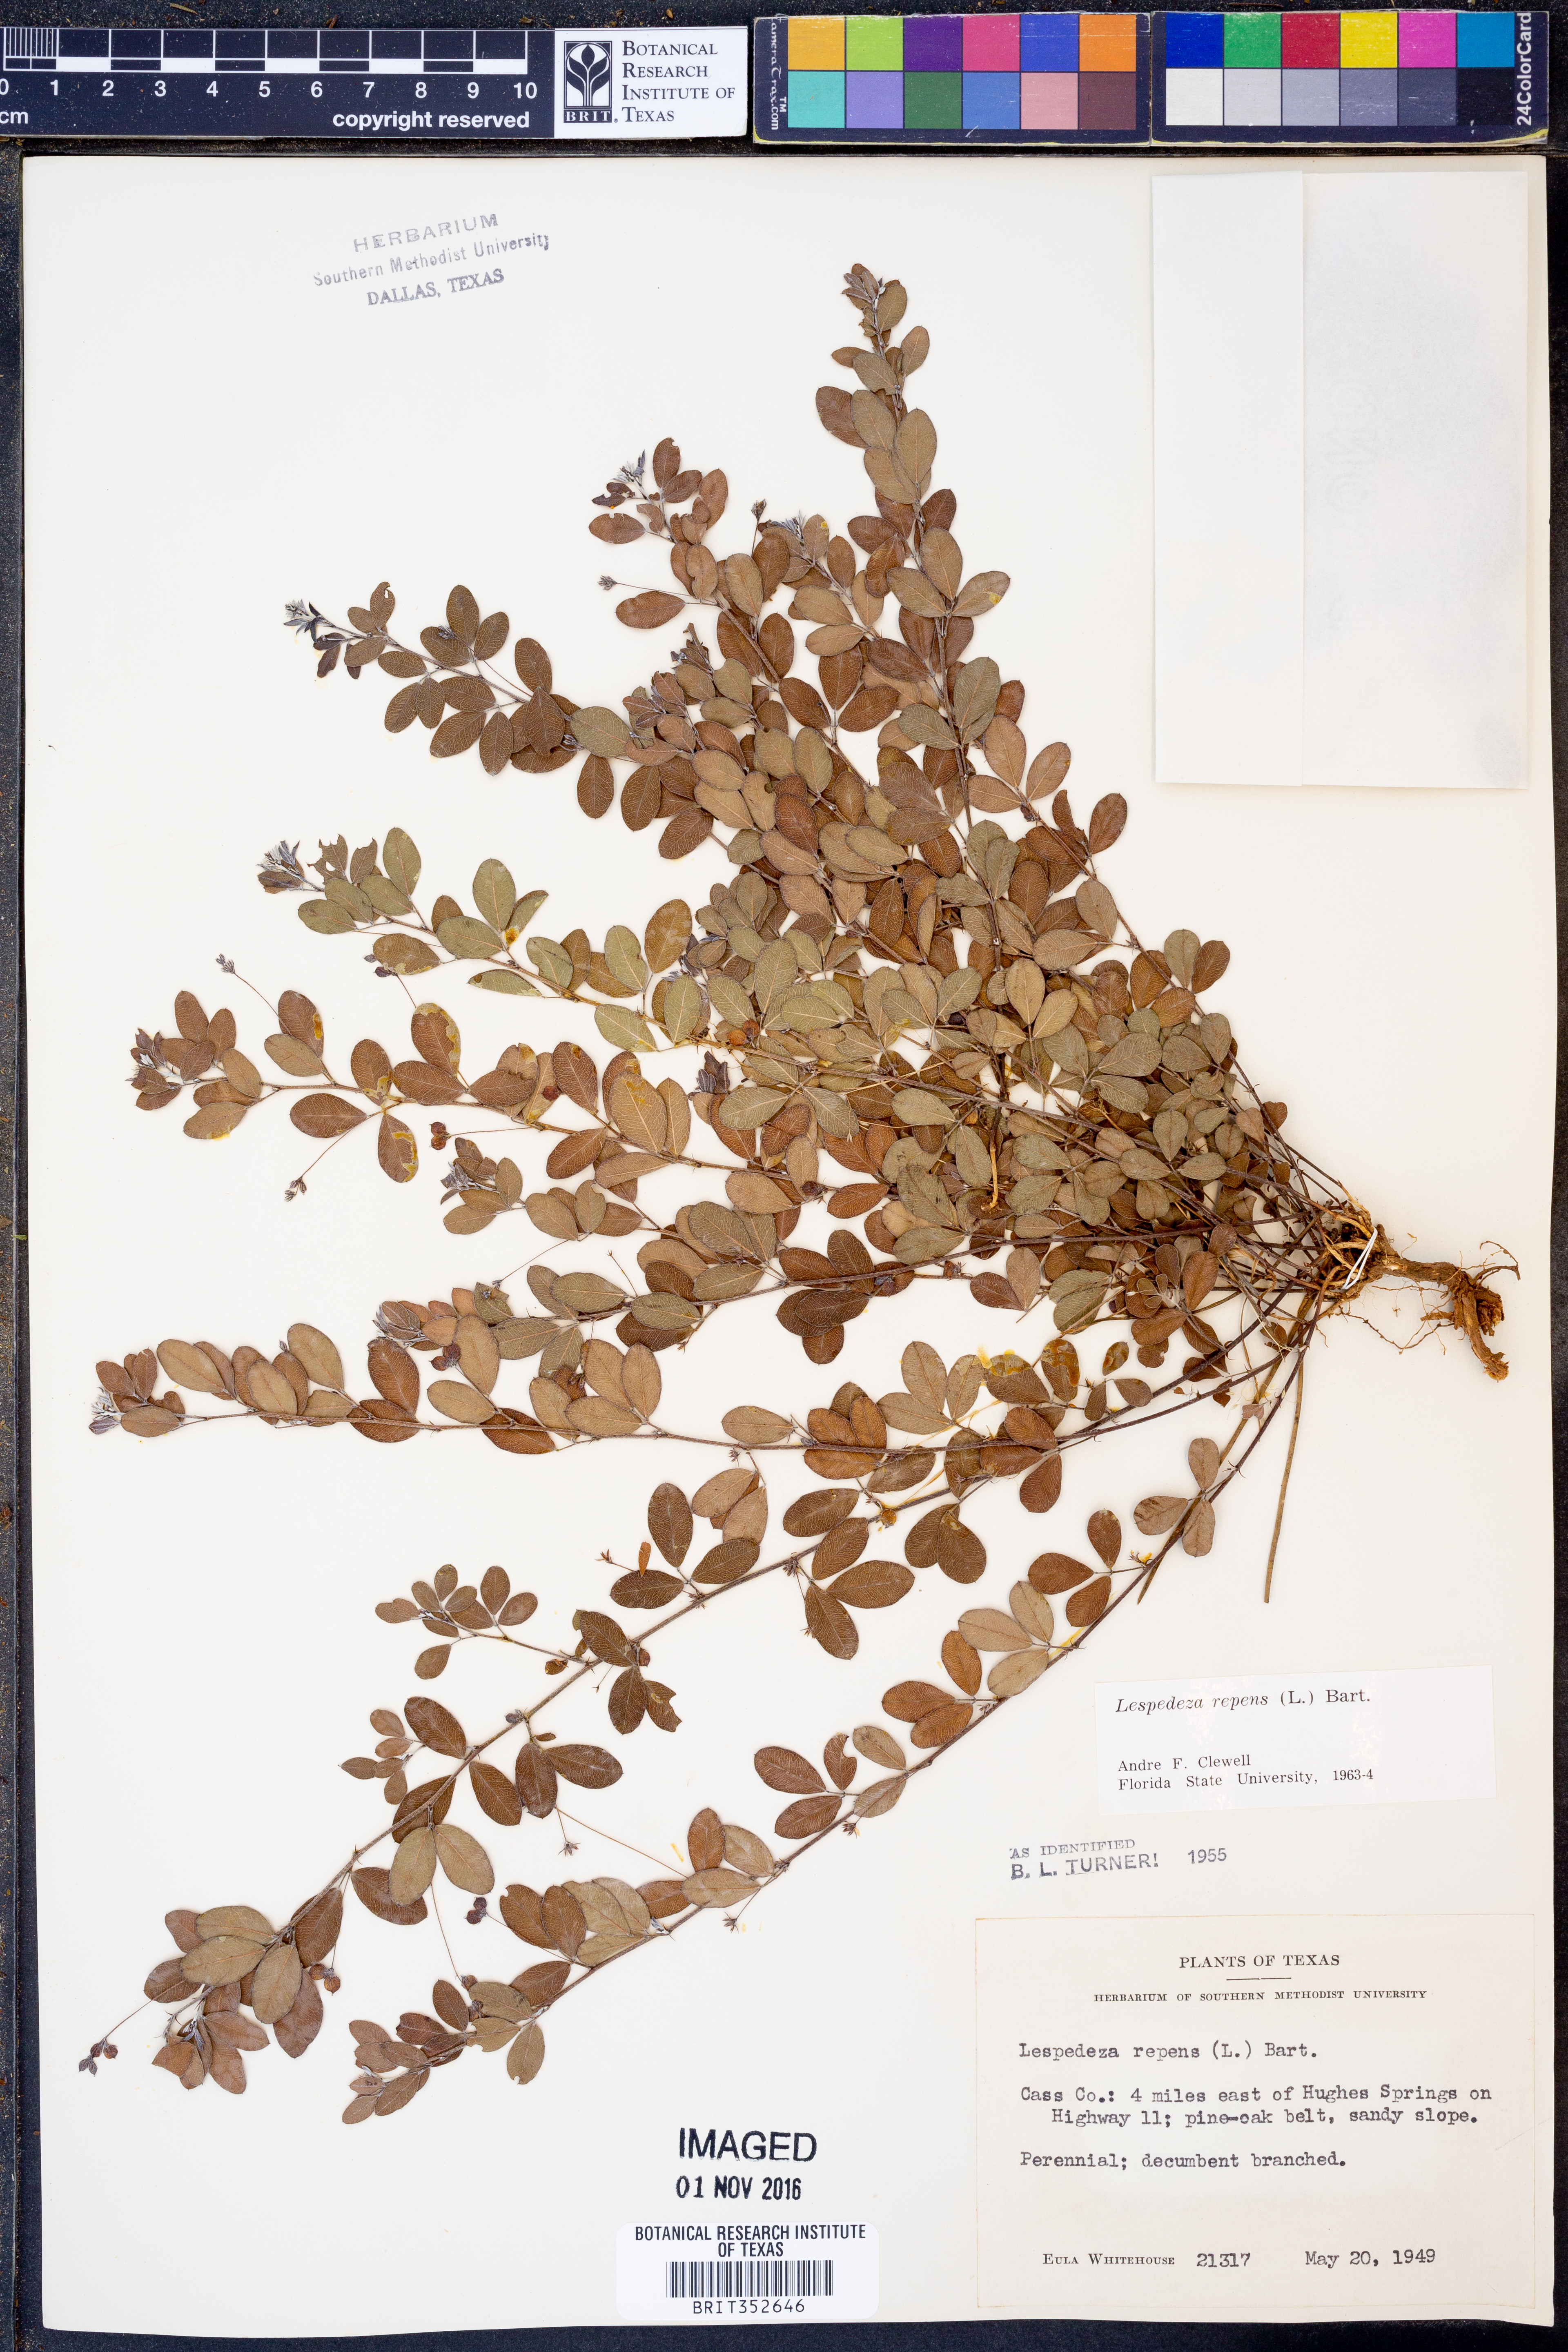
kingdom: Plantae
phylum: Tracheophyta
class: Magnoliopsida
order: Fabales
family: Fabaceae
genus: Lespedeza
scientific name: Lespedeza repens
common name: Creeping bush-clover
